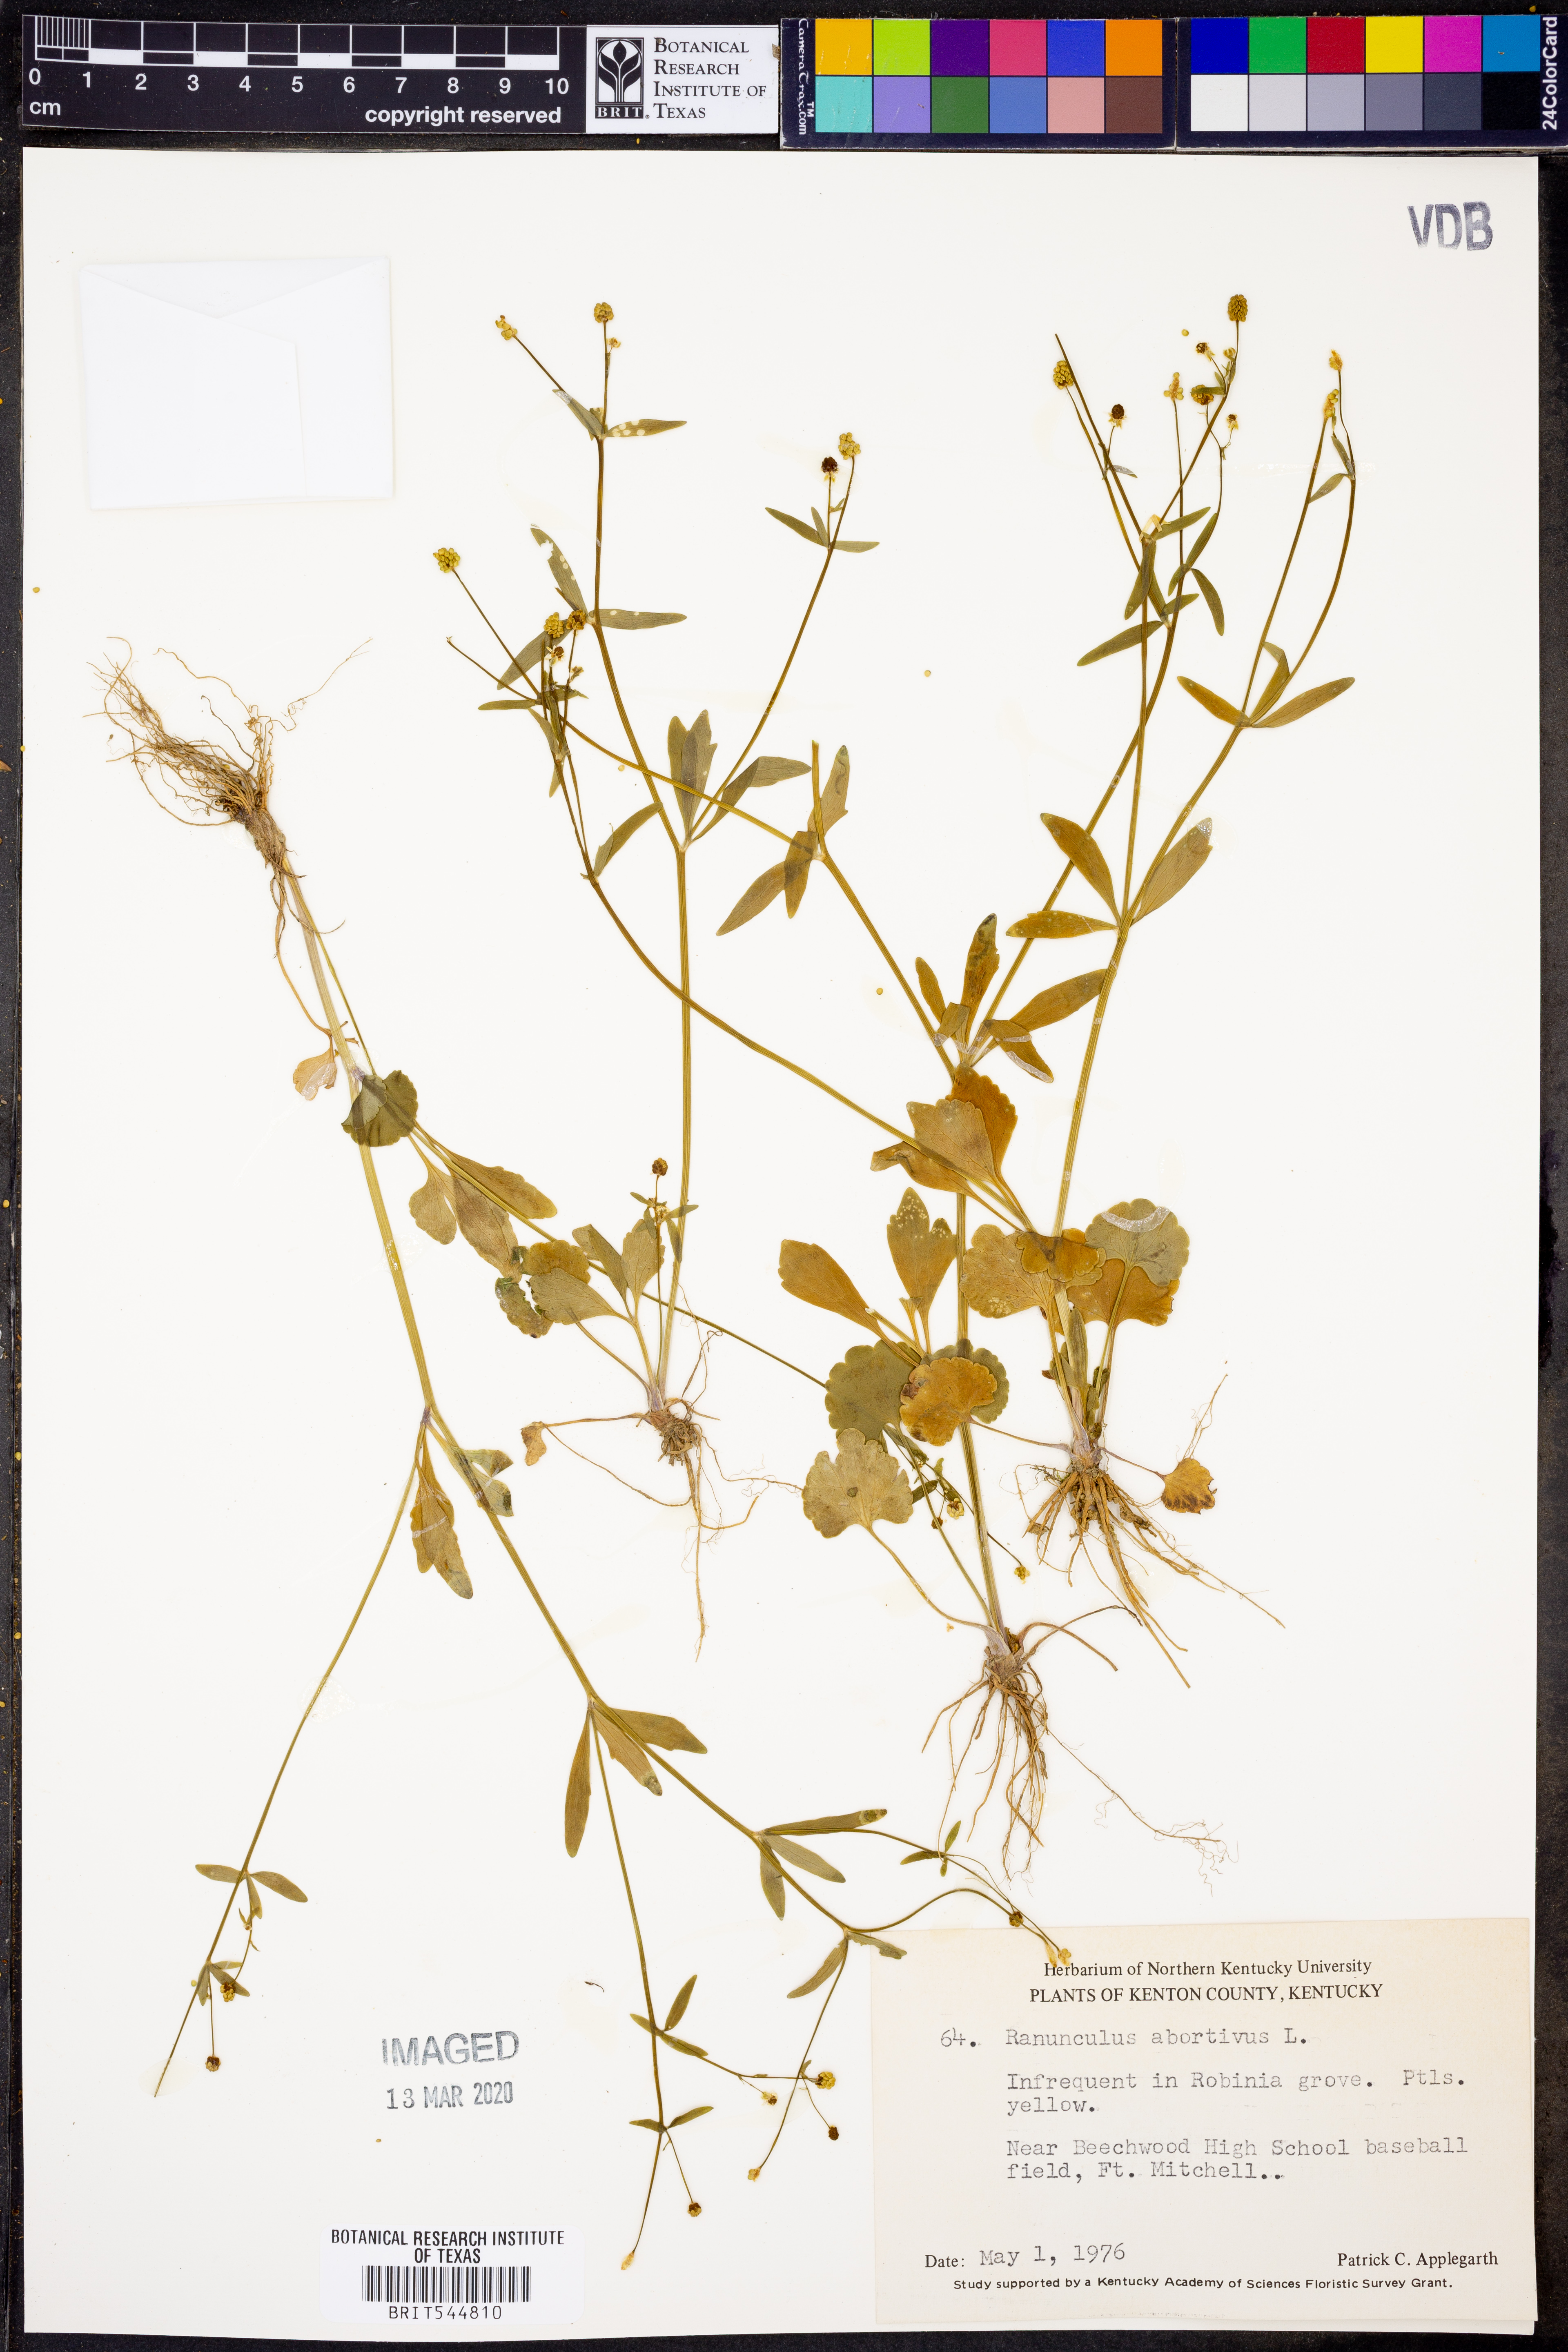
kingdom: Plantae
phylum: Tracheophyta
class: Magnoliopsida
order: Ranunculales
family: Ranunculaceae
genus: Ranunculus
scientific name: Ranunculus abortivus
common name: Early wood buttercup
